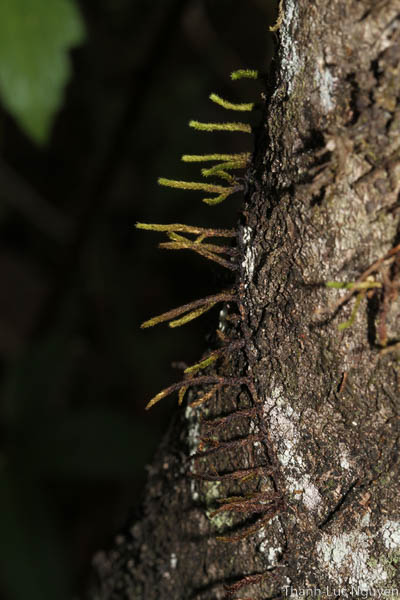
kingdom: Plantae
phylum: Bryophyta
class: Bryopsida
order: Hypnales
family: Meteoriaceae
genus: Cryptopapillaria
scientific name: Cryptopapillaria feae
